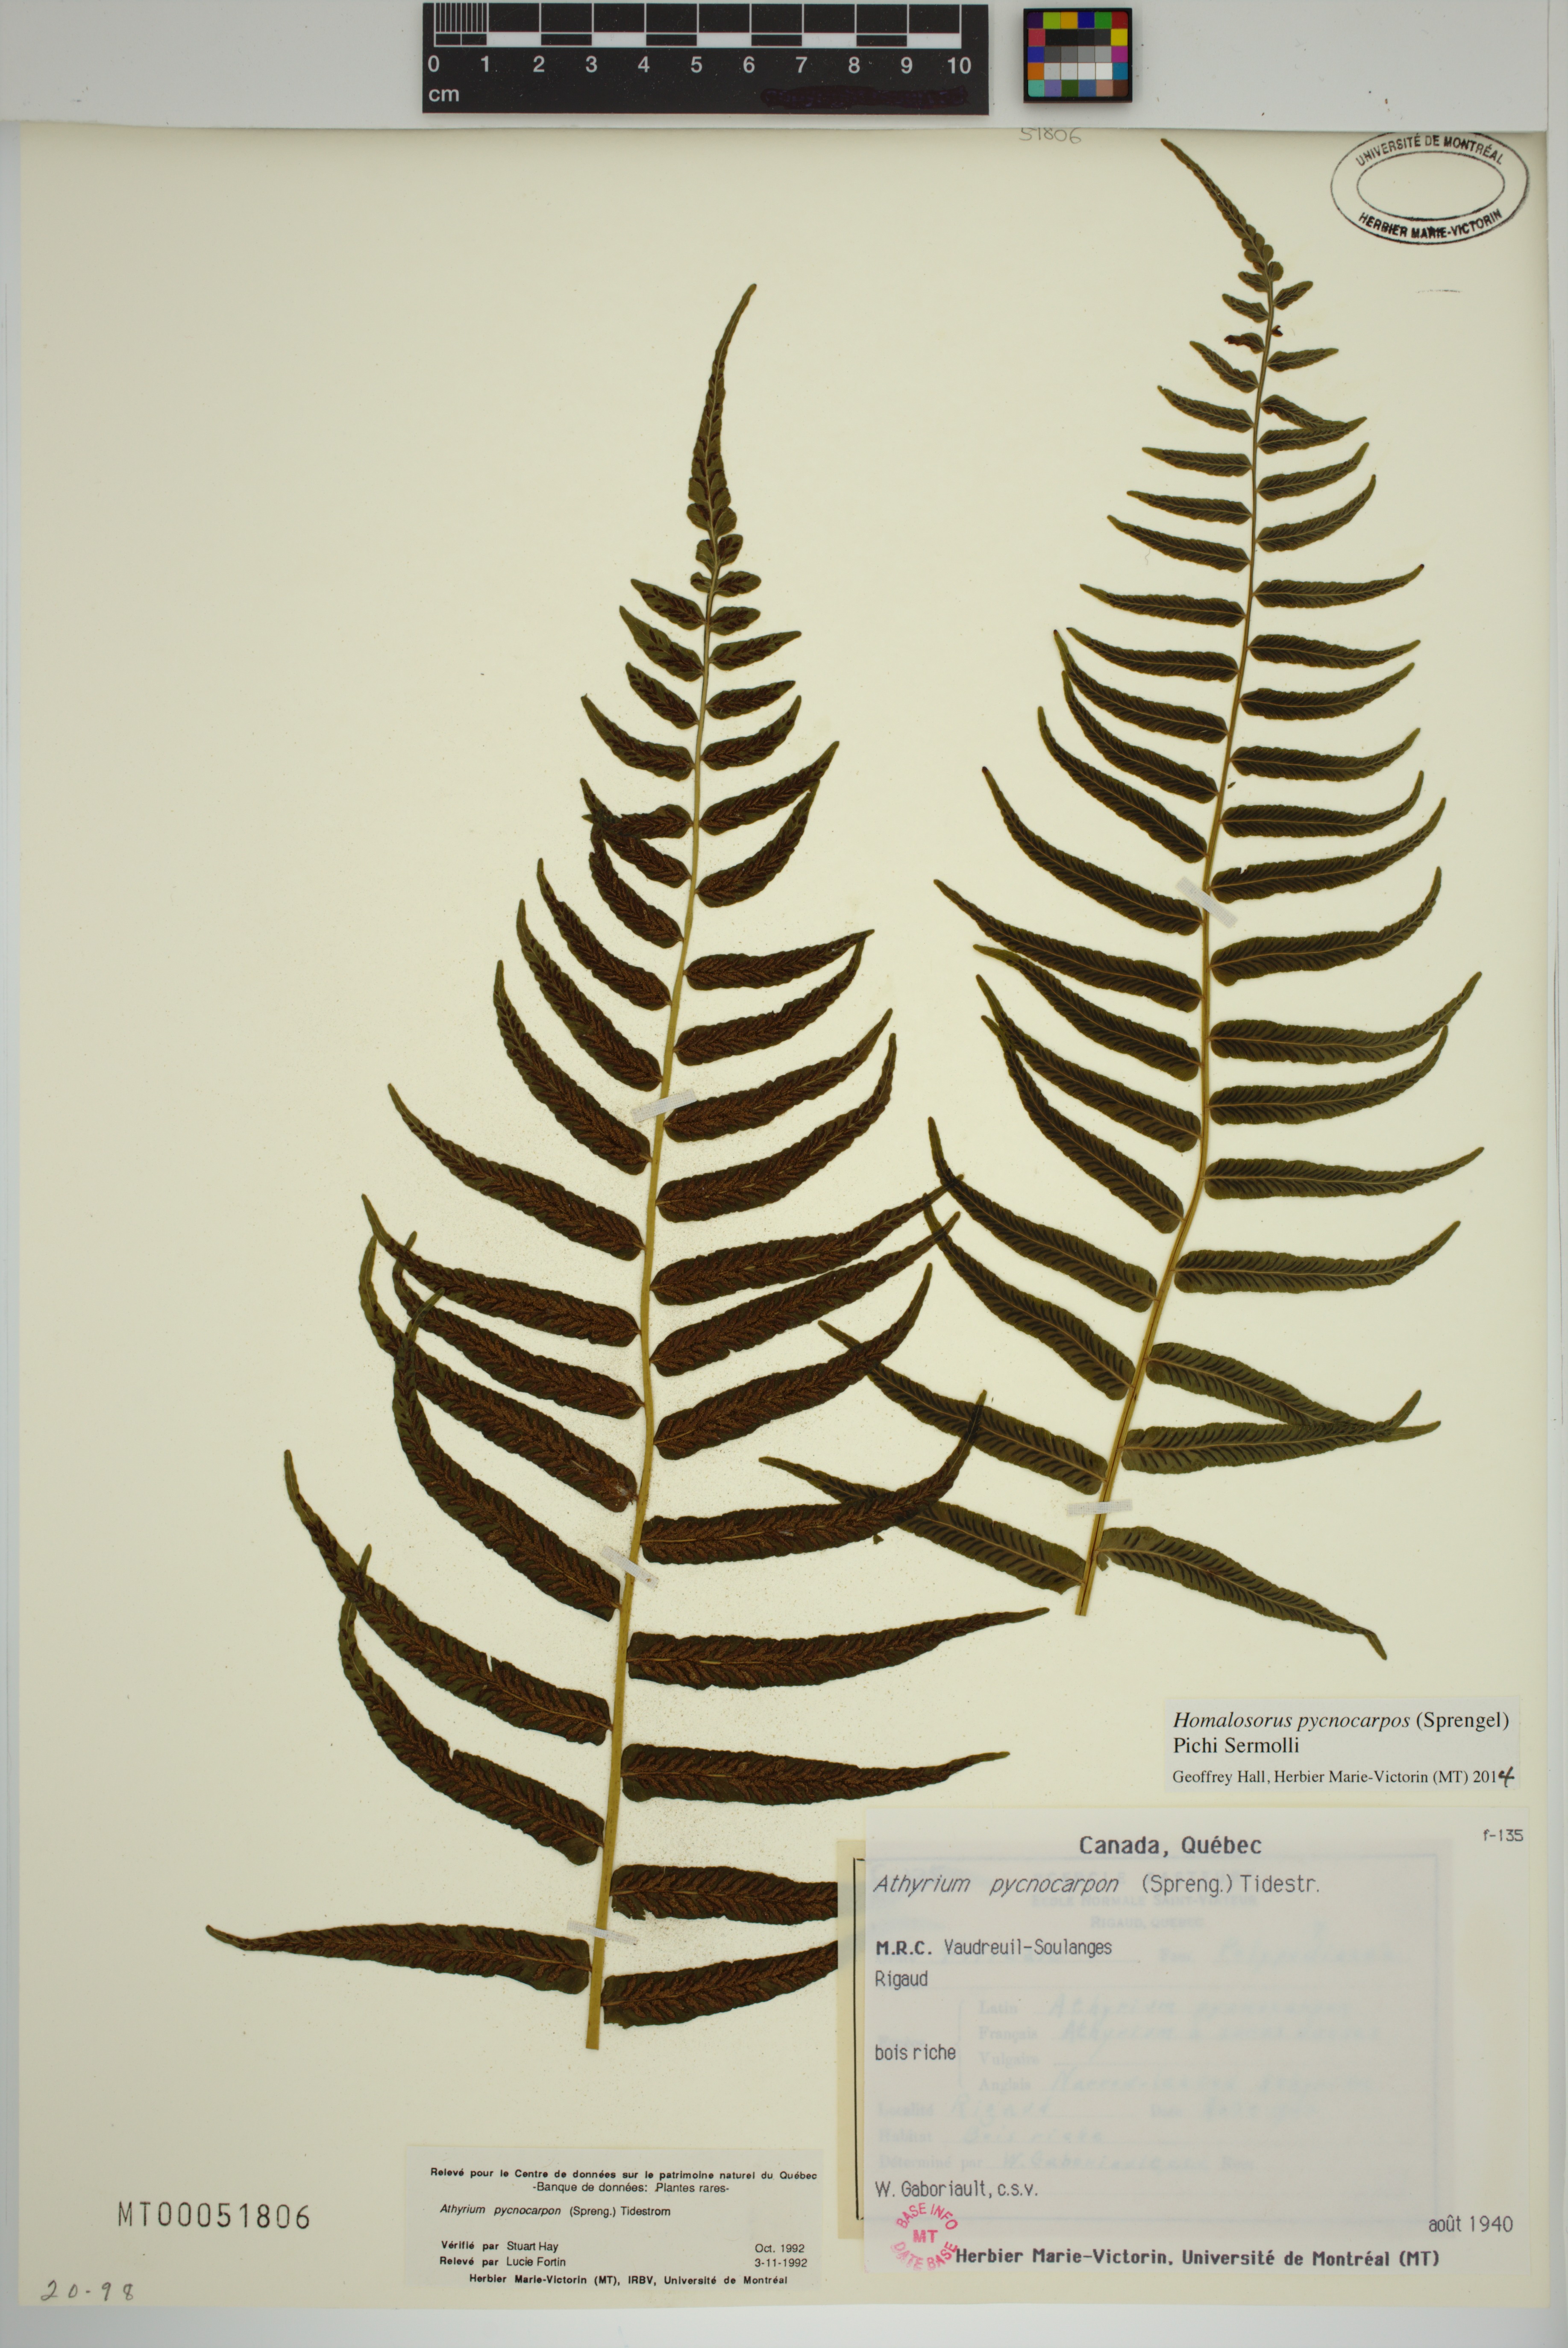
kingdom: Plantae
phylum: Tracheophyta
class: Polypodiopsida
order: Polypodiales
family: Diplaziopsidaceae
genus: Homalosorus
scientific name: Homalosorus pycnocarpos
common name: Glade fern
